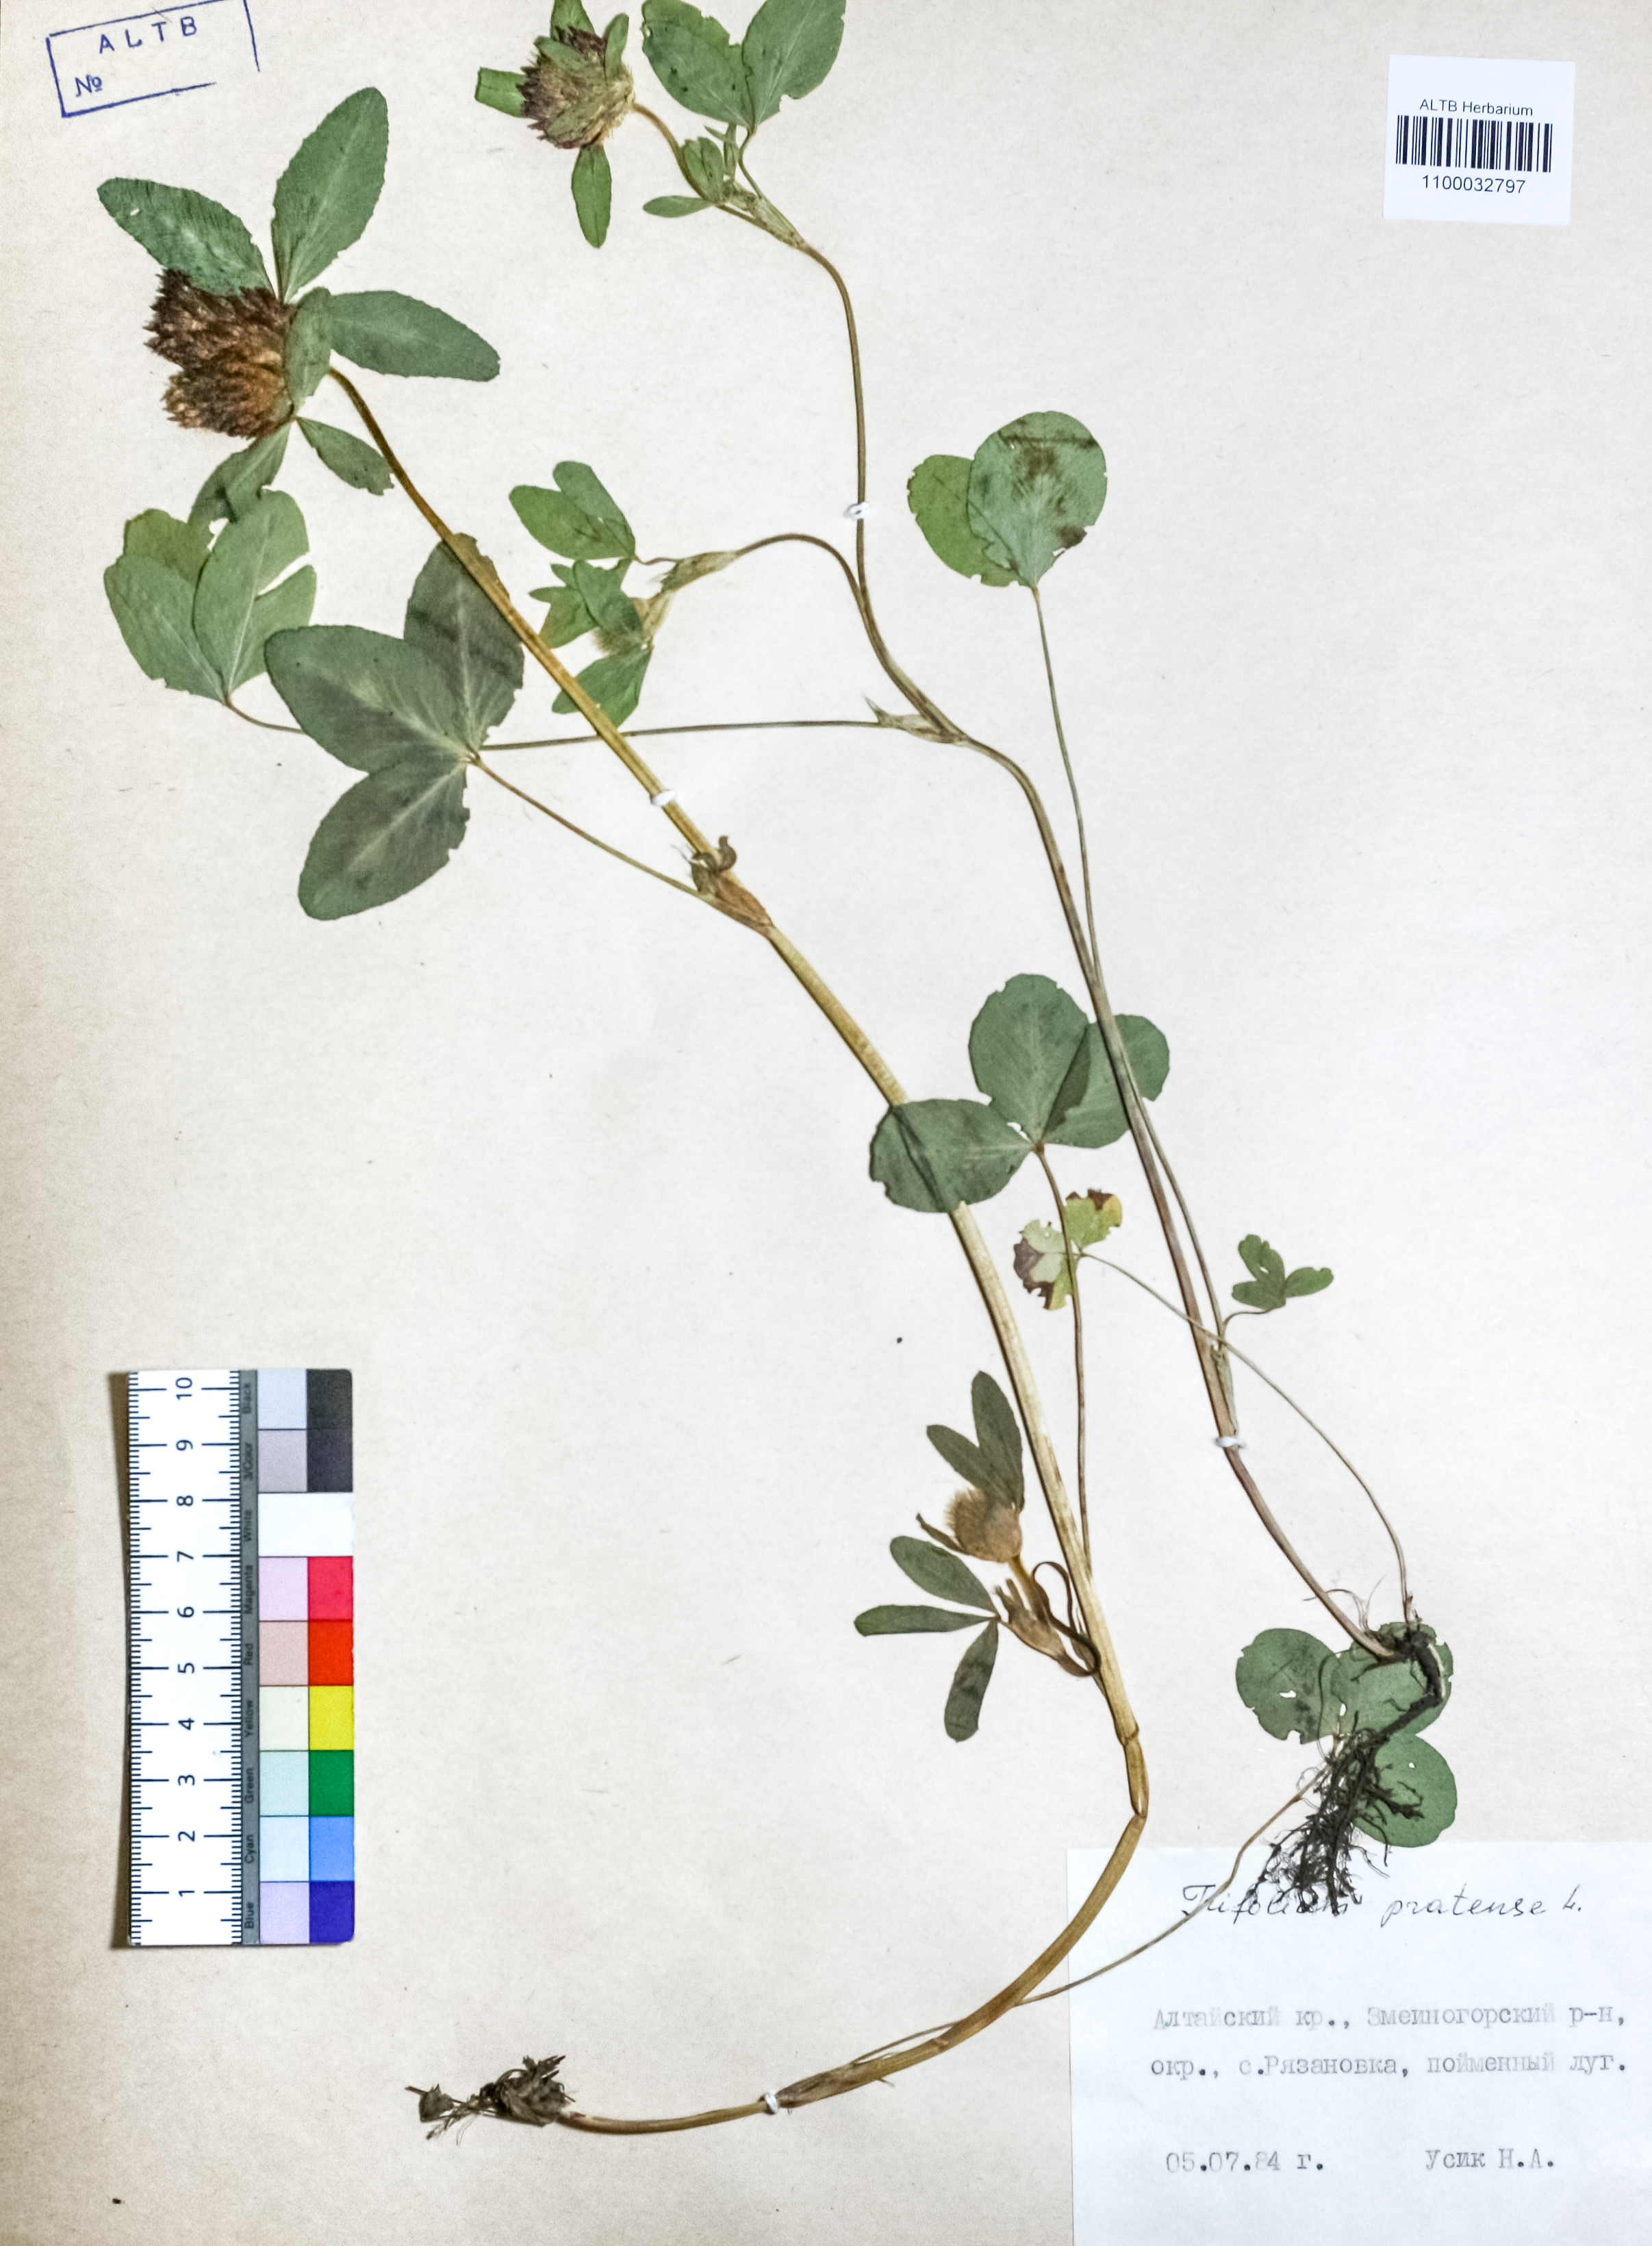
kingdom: Plantae
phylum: Tracheophyta
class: Magnoliopsida
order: Fabales
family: Fabaceae
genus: Trifolium
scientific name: Trifolium pratense
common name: Red clover
